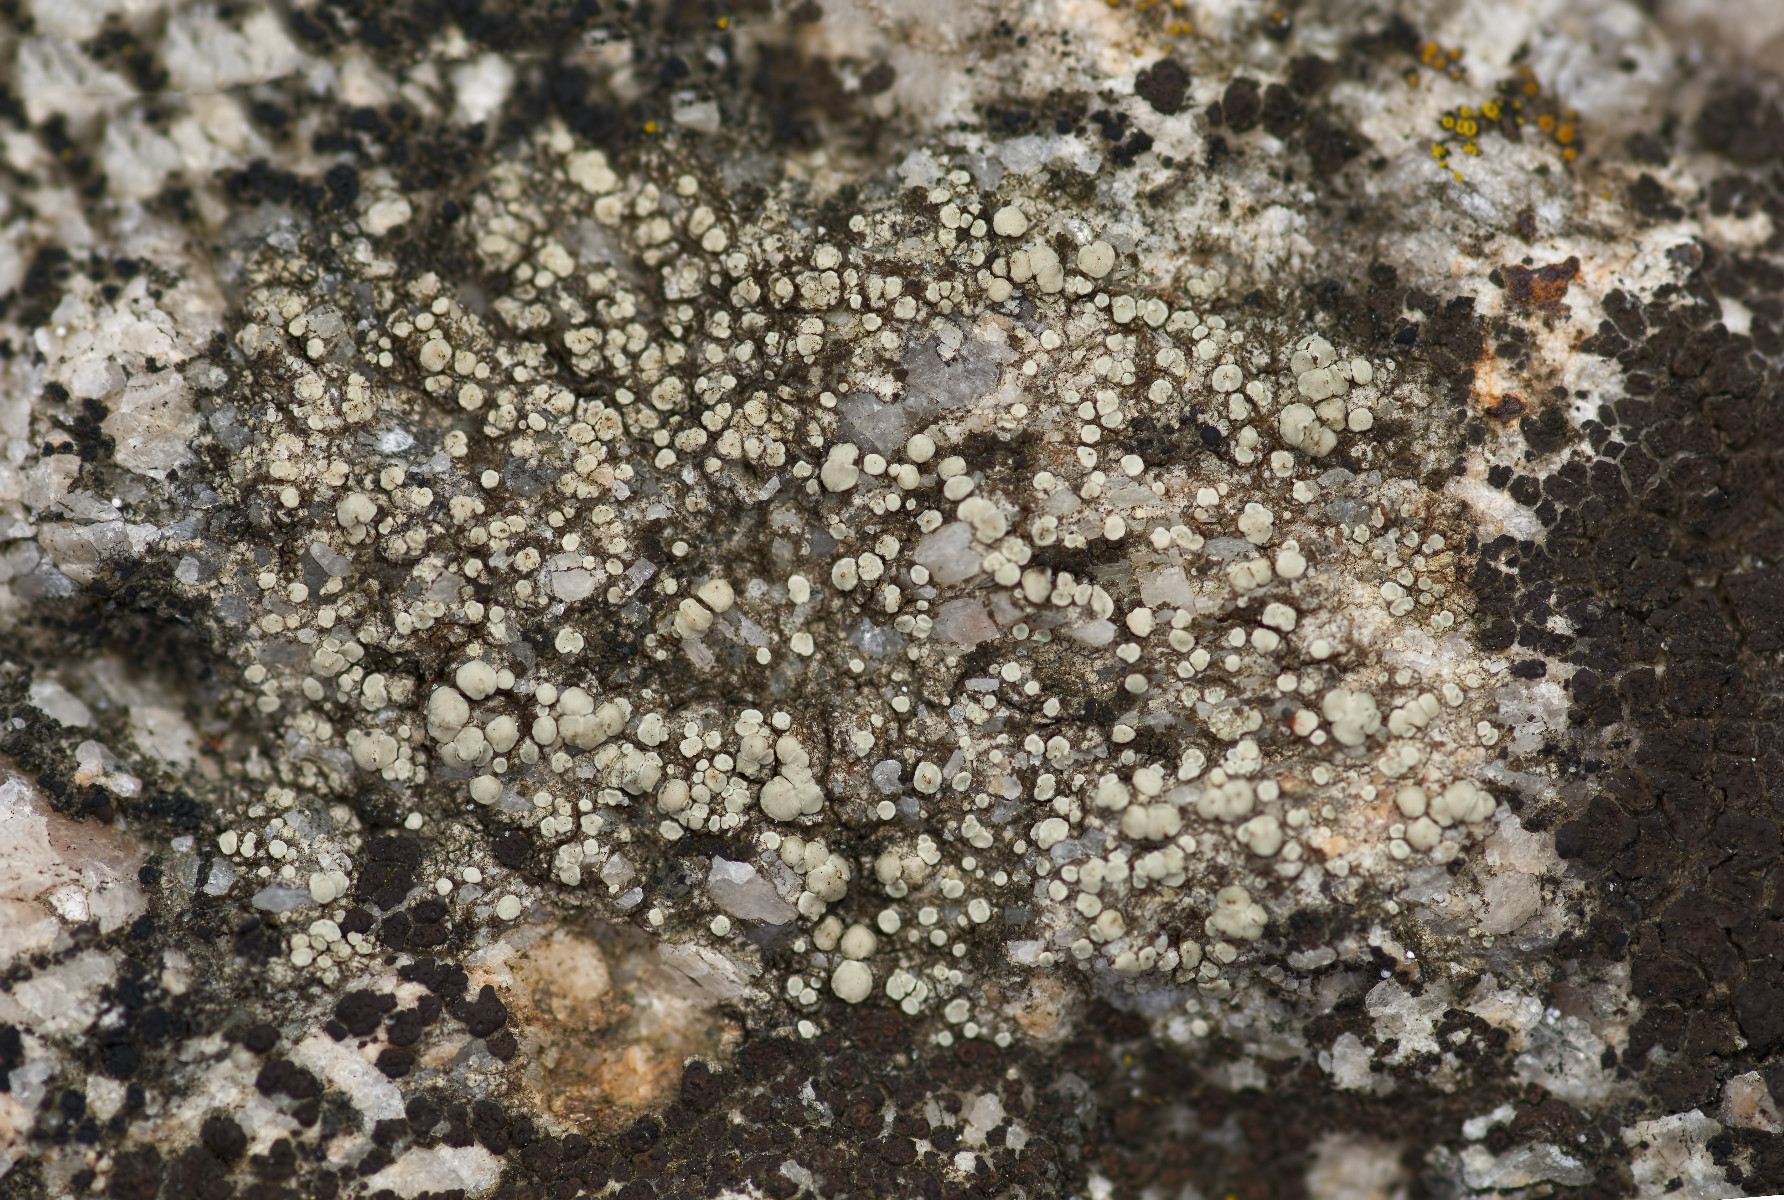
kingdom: Fungi
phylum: Ascomycota
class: Lecanoromycetes
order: Lecanorales
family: Lecanoraceae
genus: Lecanora
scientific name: Lecanora polytropa
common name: bleggrøn kantskivelav
